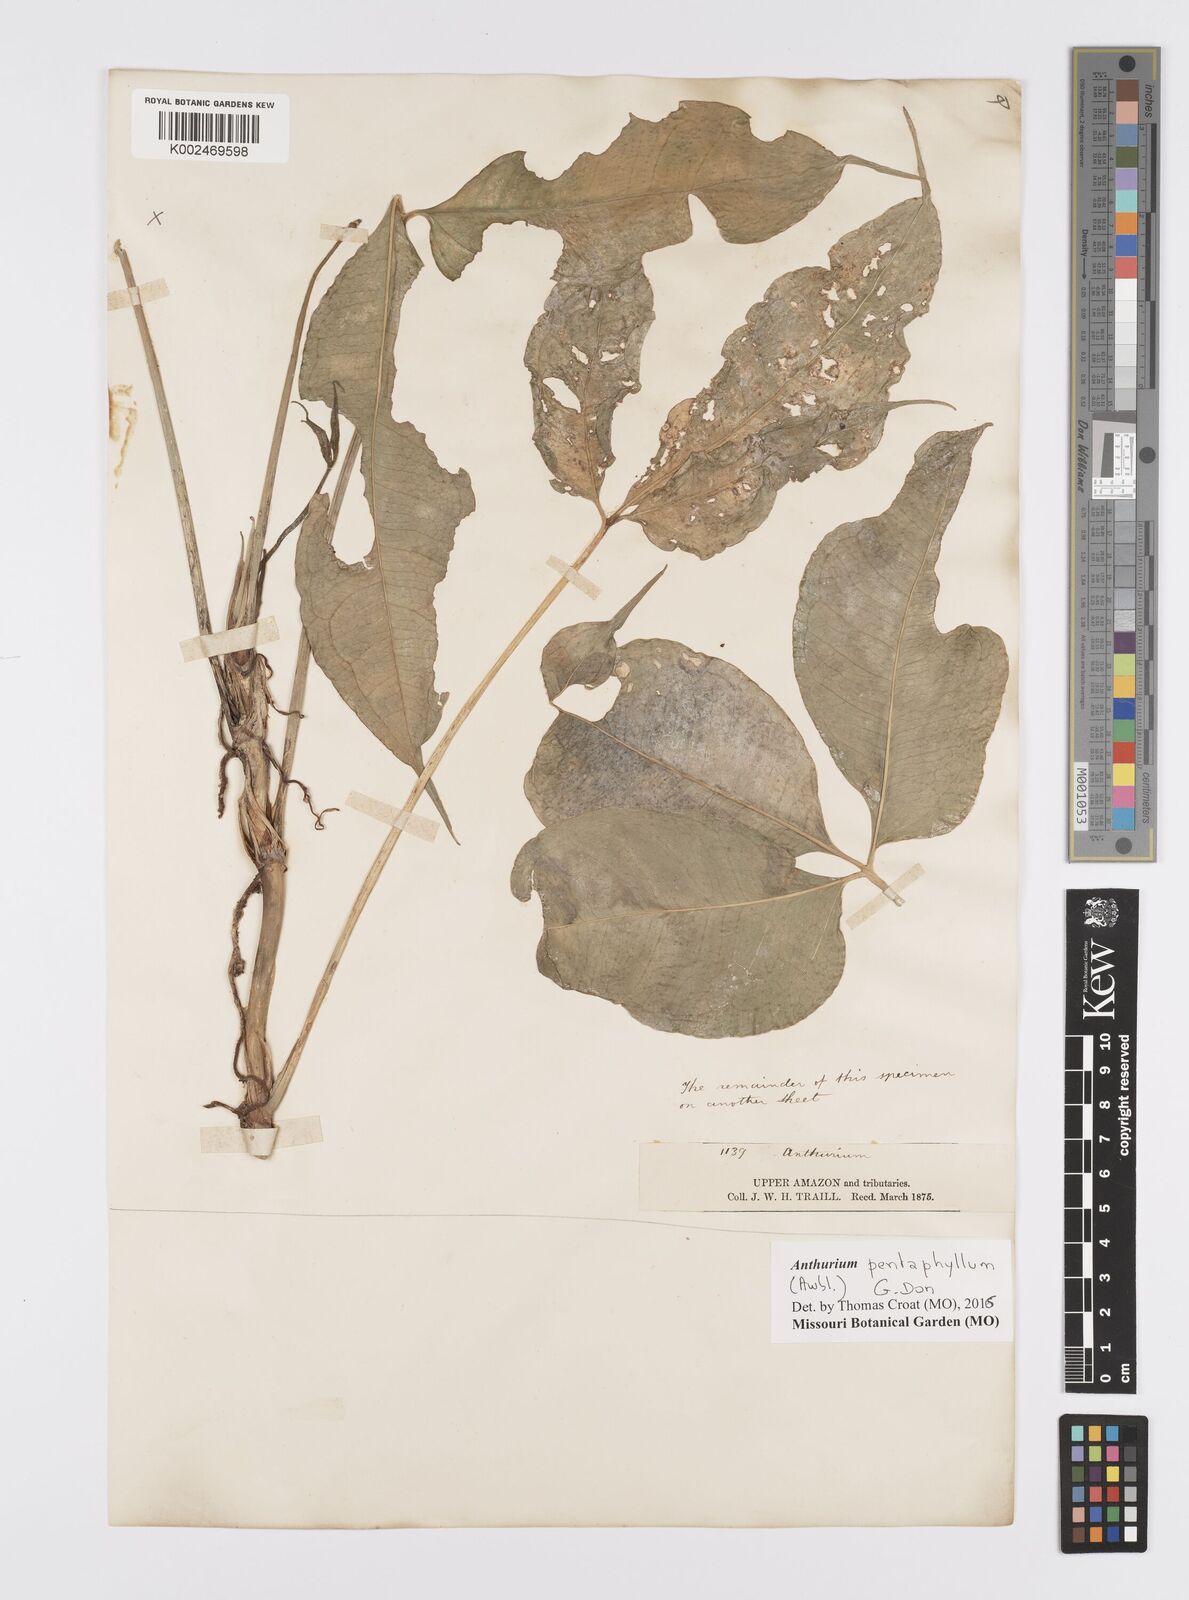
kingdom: Plantae
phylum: Tracheophyta
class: Liliopsida
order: Alismatales
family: Araceae
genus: Anthurium
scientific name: Anthurium pentaphyllum
